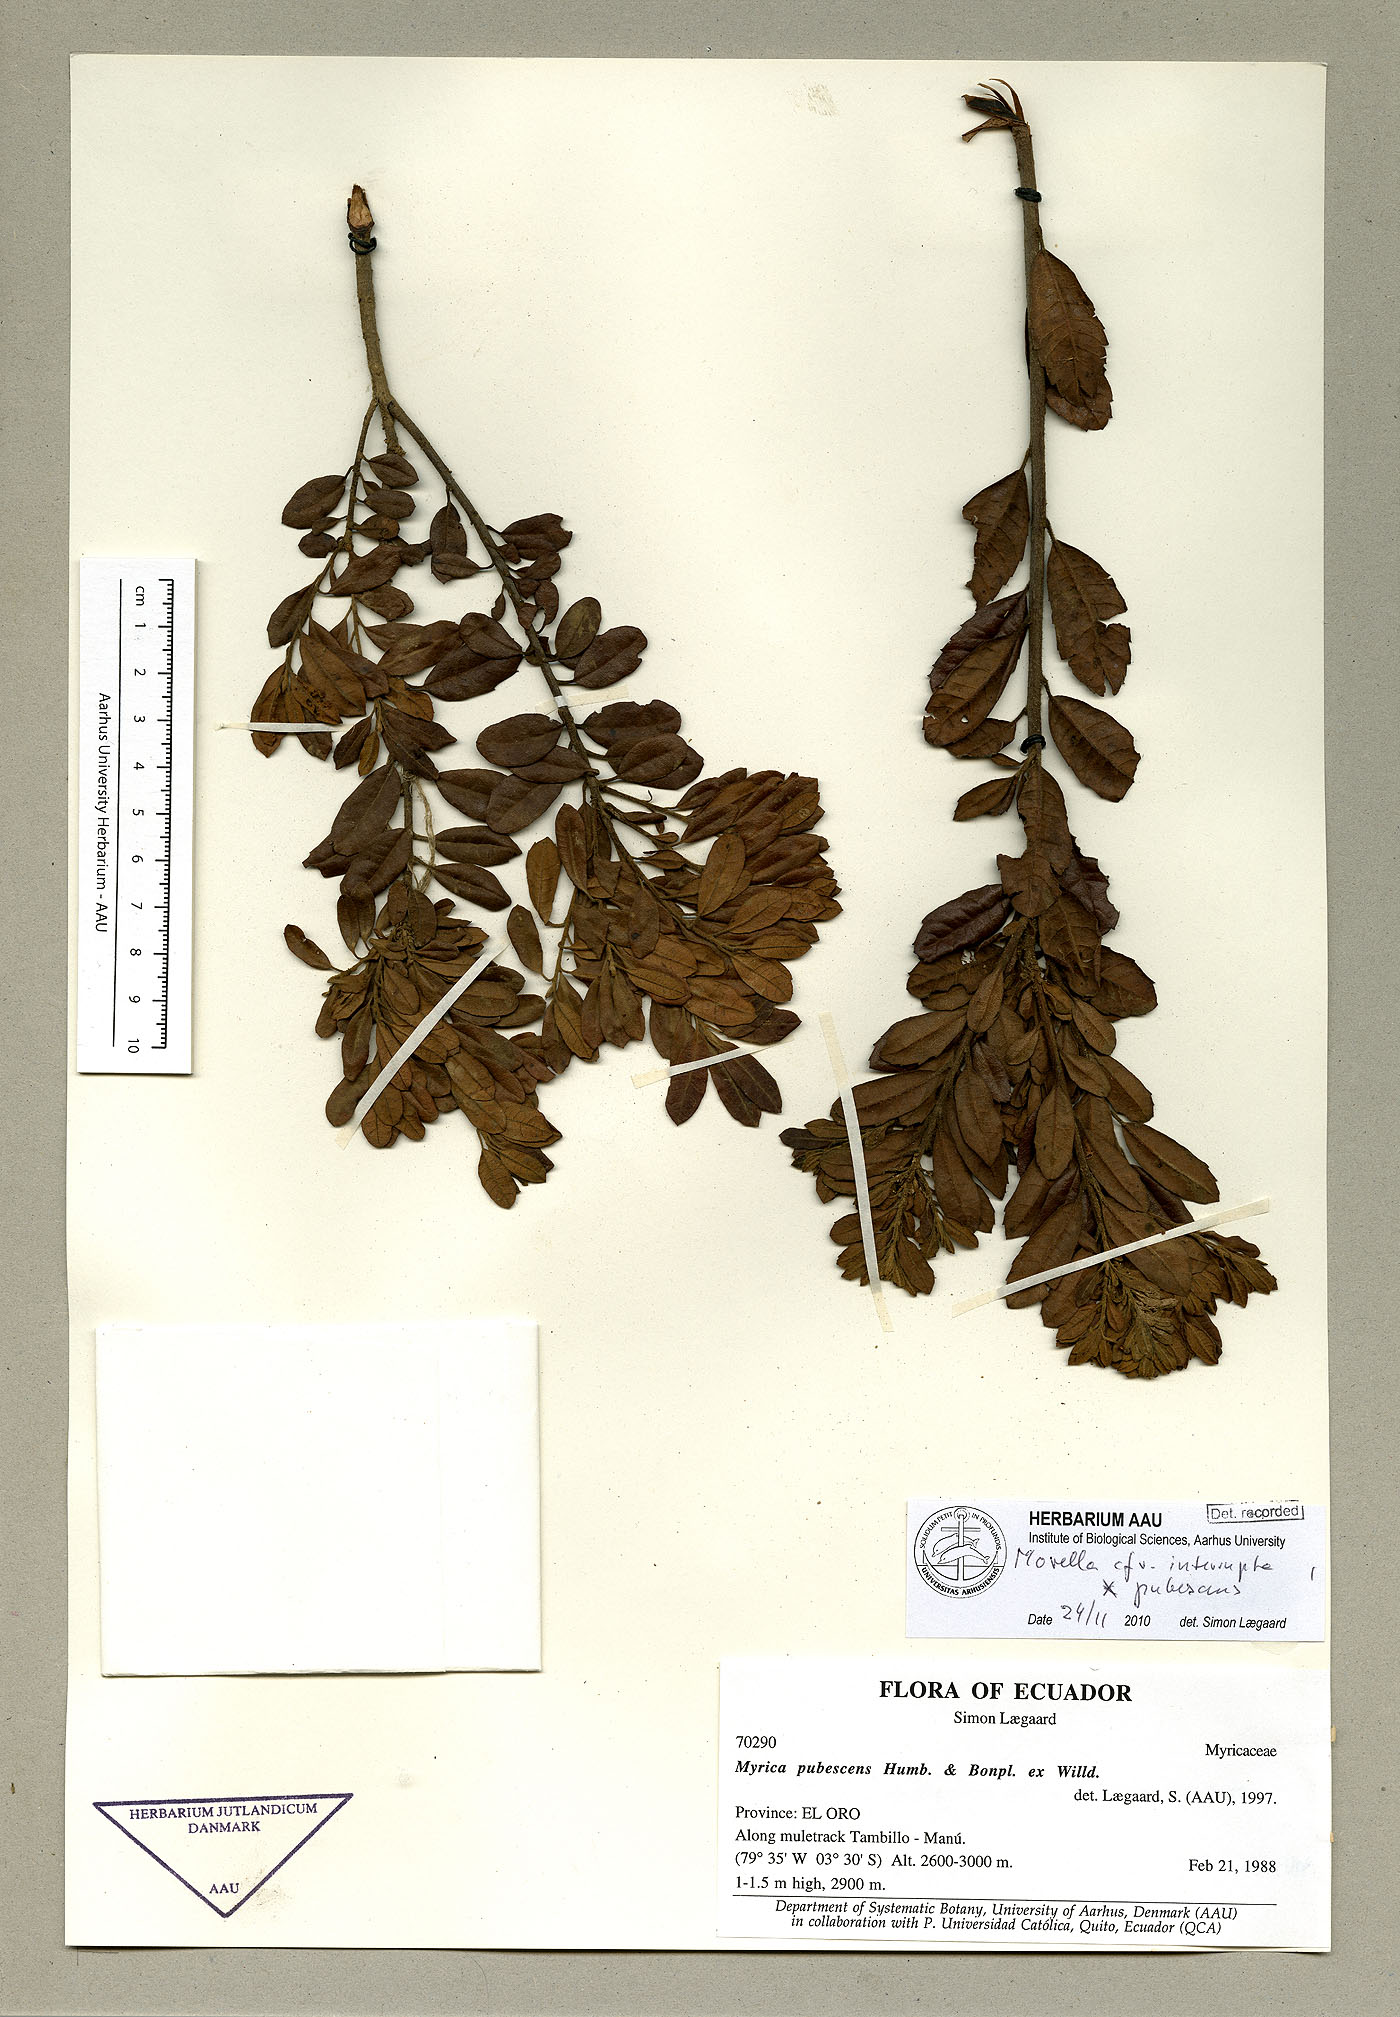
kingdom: Plantae
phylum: Tracheophyta
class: Magnoliopsida
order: Fagales
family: Myricaceae
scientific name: Myricaceae
